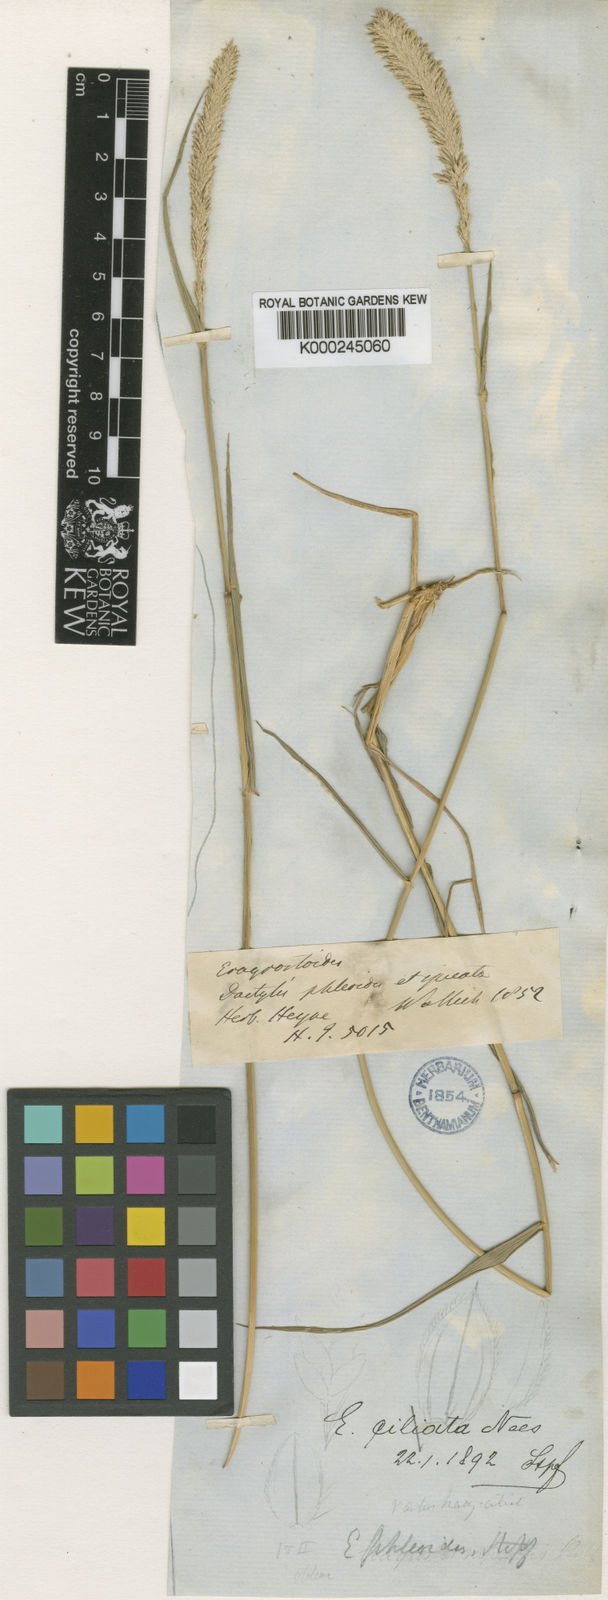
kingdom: Plantae
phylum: Tracheophyta
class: Liliopsida
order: Poales
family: Poaceae
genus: Eragrostis
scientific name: Eragrostis deccanensis
